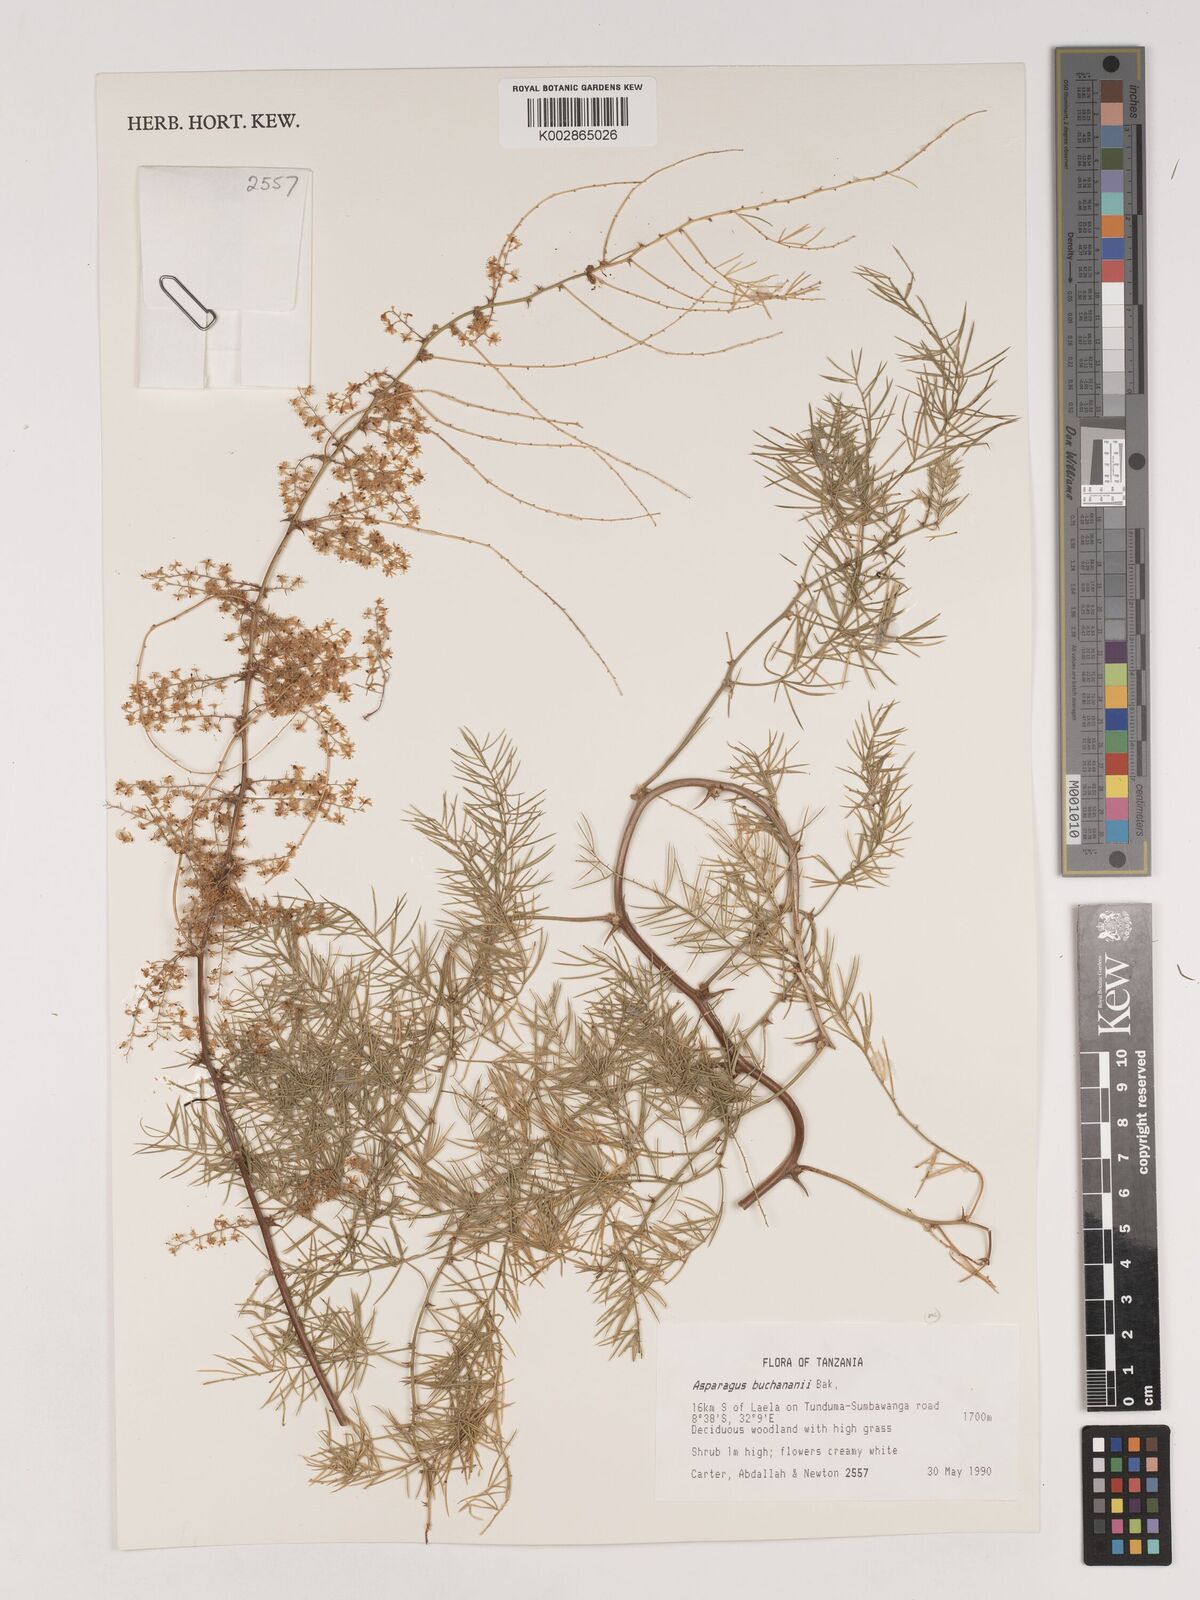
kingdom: Plantae
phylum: Tracheophyta
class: Liliopsida
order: Asparagales
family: Asparagaceae
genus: Asparagus
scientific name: Asparagus buchananii
